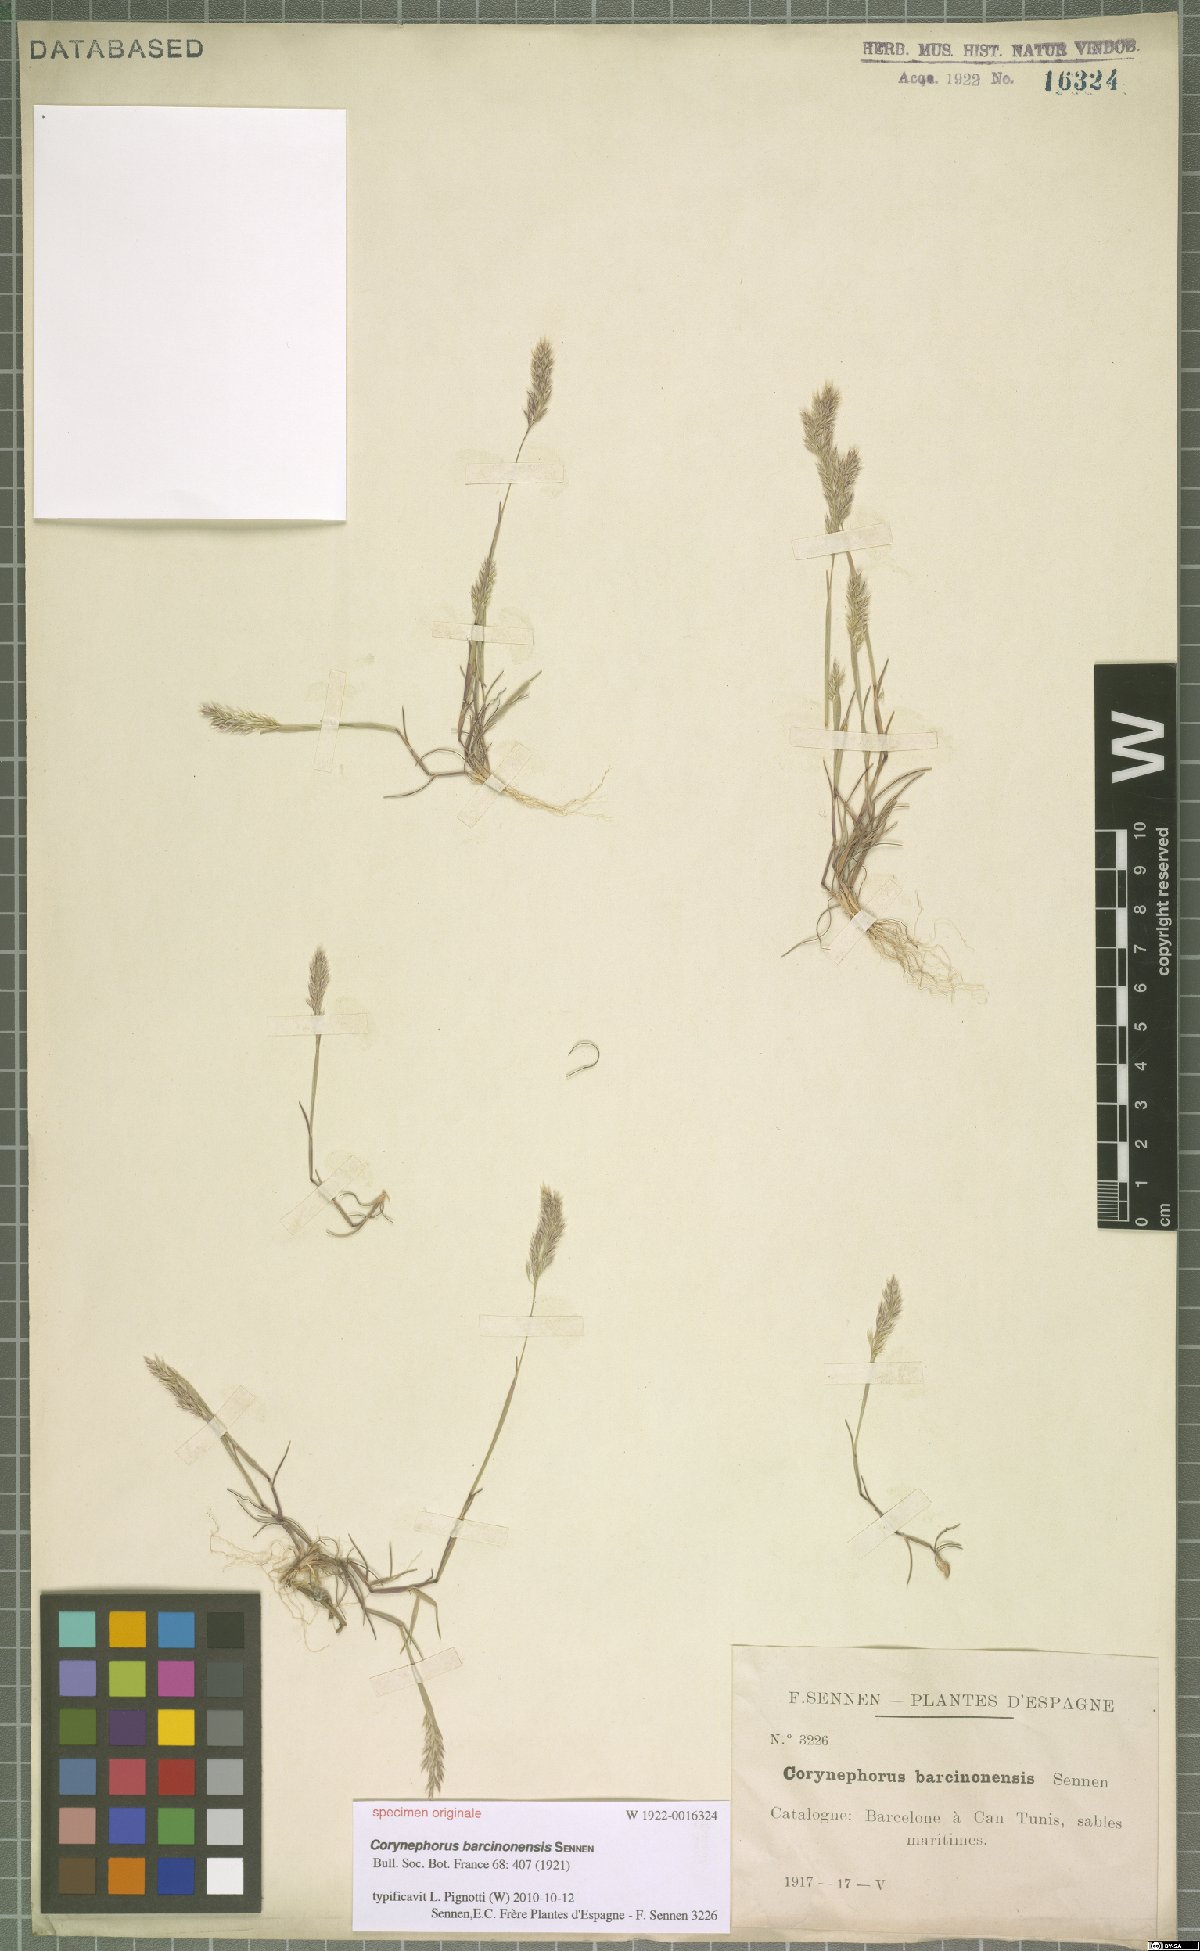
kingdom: Plantae
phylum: Tracheophyta
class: Liliopsida
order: Poales
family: Poaceae
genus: Corynephorus
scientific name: Corynephorus barcinonensis
